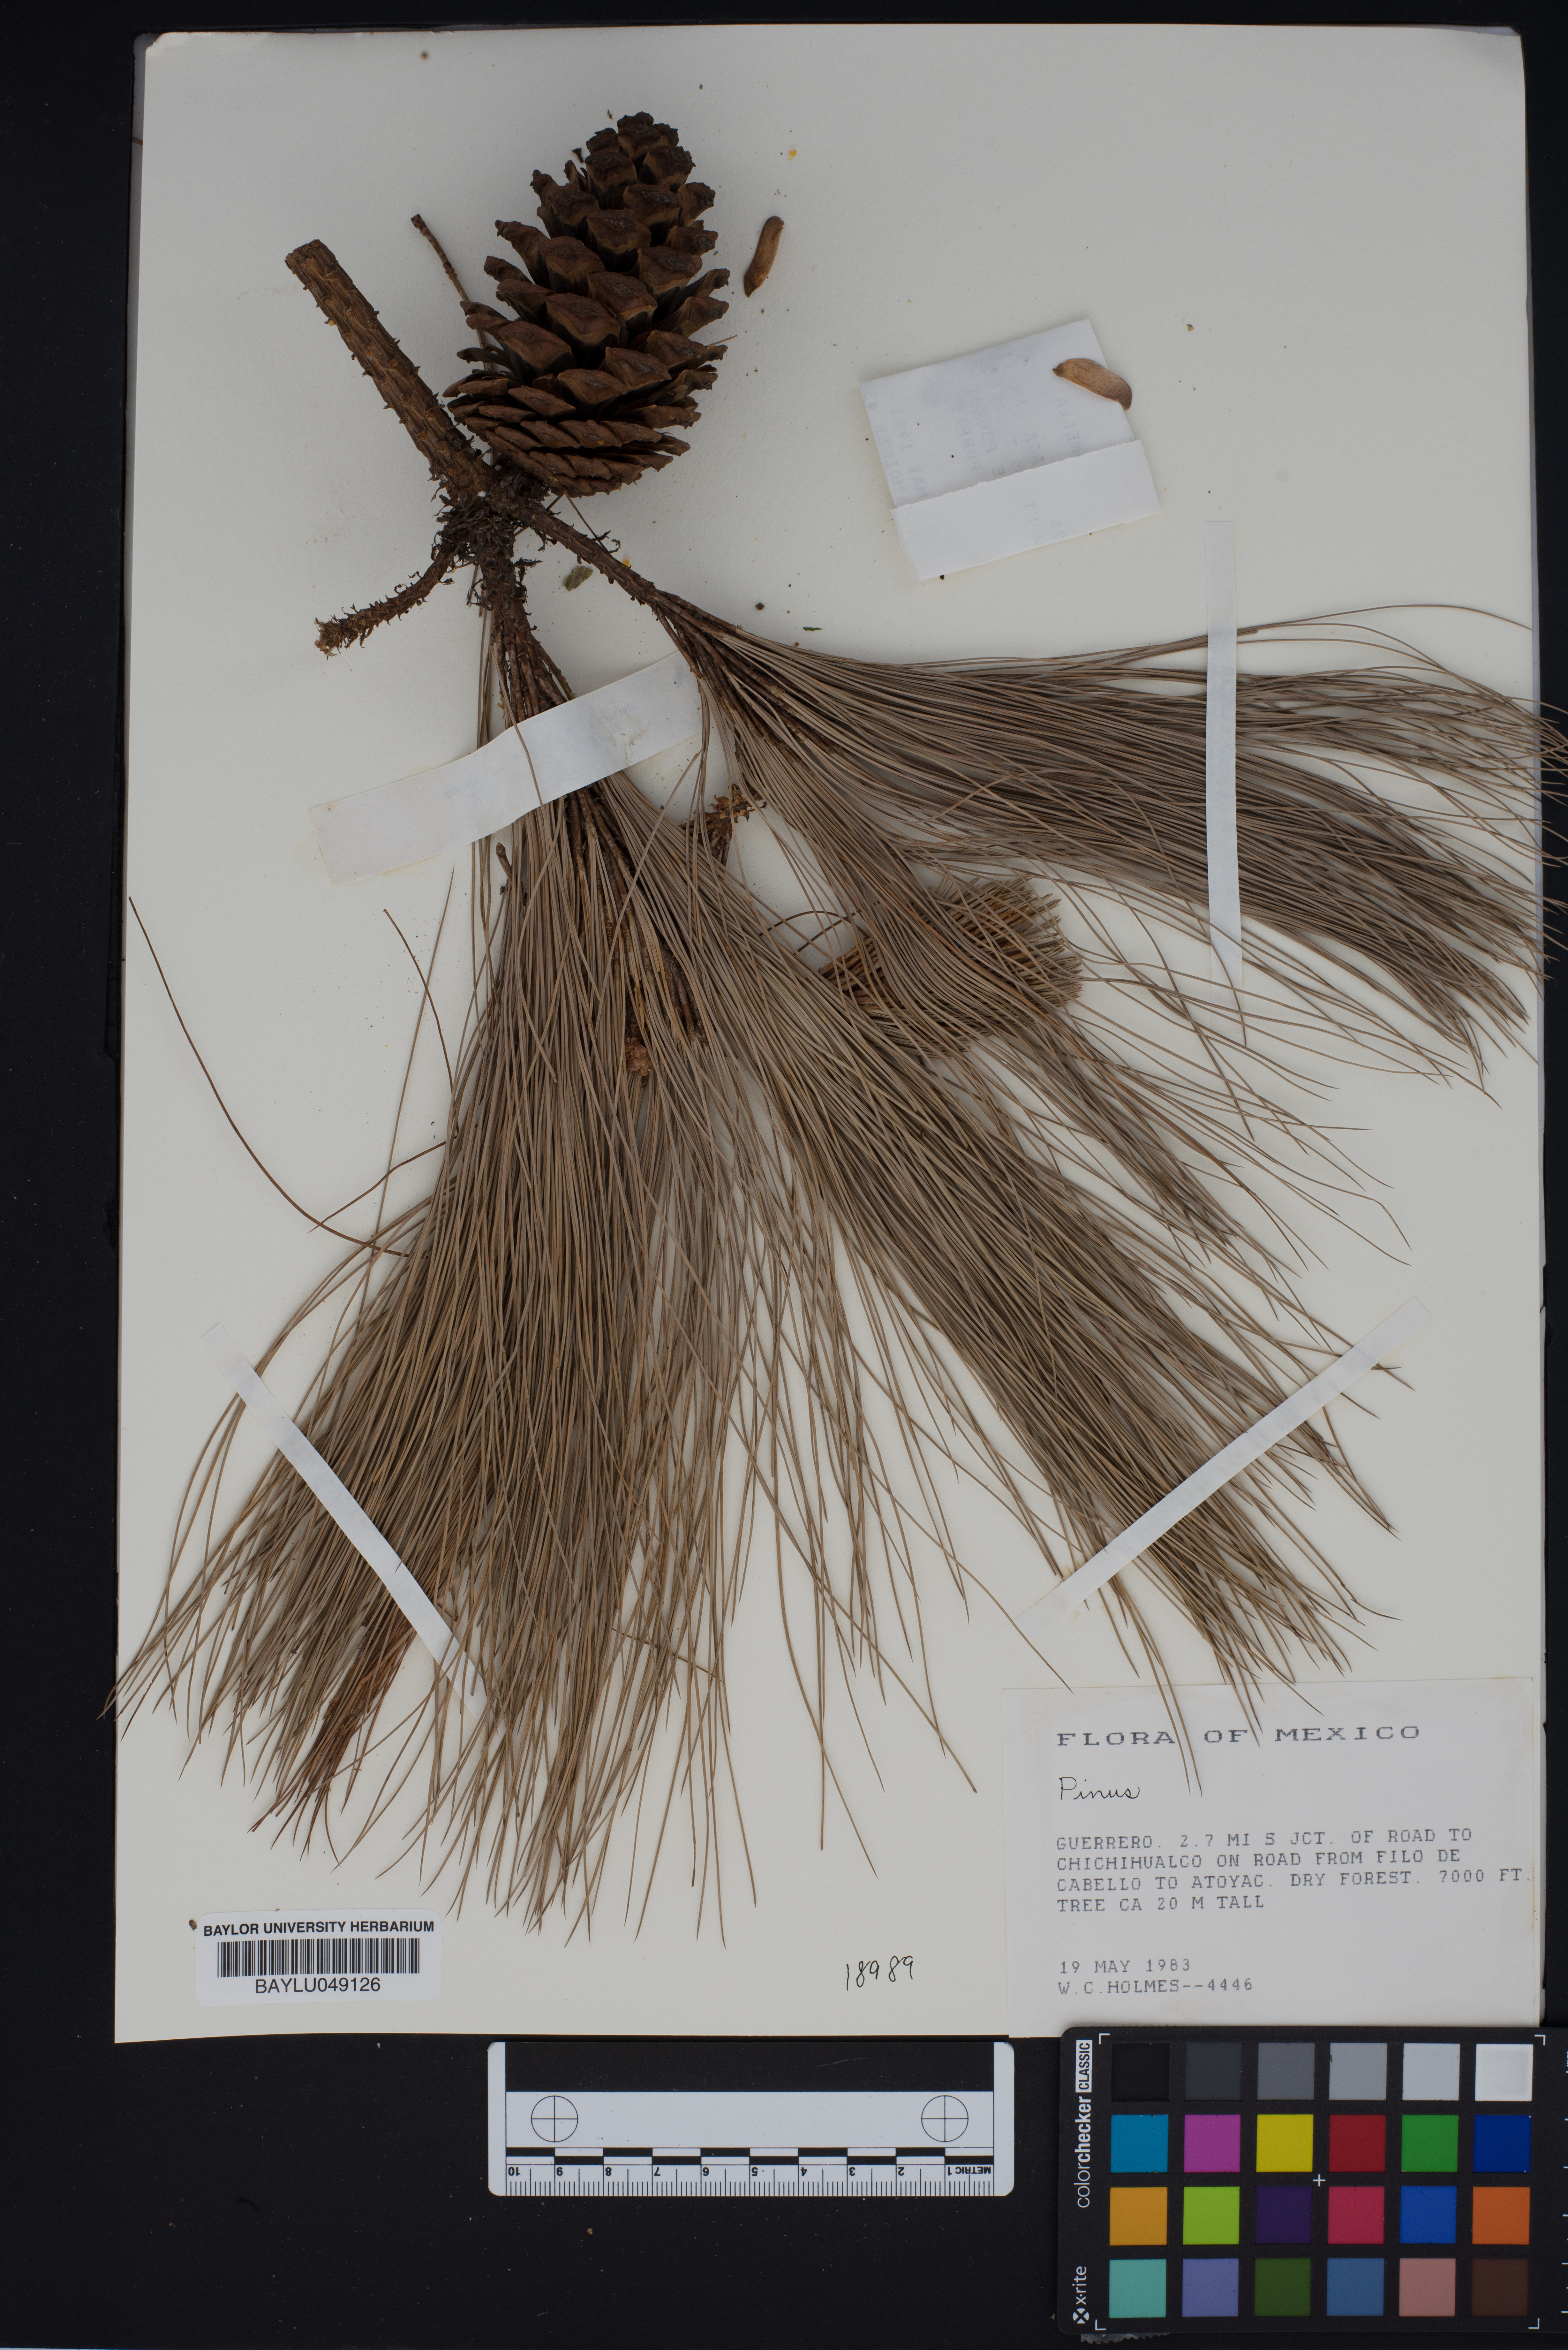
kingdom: Plantae
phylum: Tracheophyta
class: Pinopsida
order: Pinales
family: Pinaceae
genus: Pinus
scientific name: Pinus
